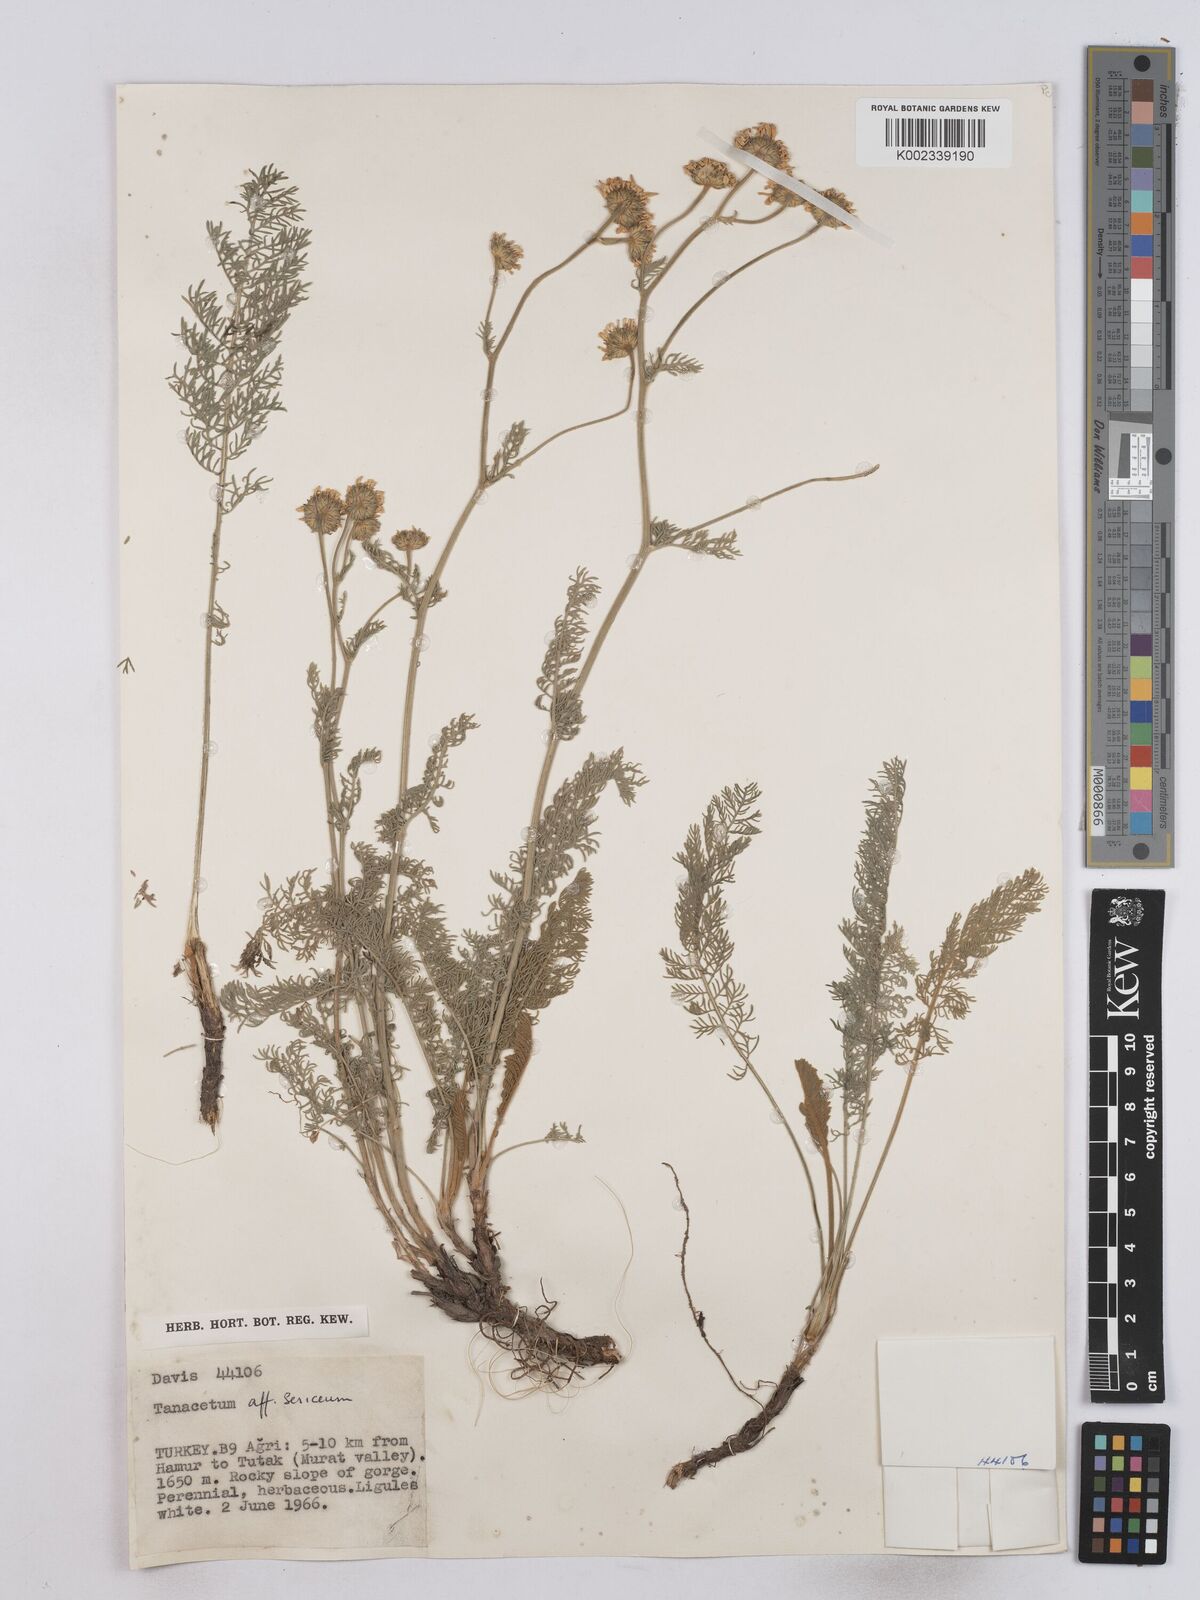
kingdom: Plantae
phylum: Tracheophyta
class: Magnoliopsida
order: Asterales
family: Asteraceae
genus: Tanacetum
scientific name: Tanacetum sericeum
